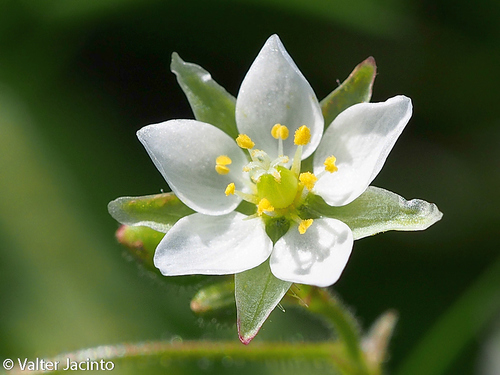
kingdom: Plantae
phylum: Tracheophyta
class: Magnoliopsida
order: Caryophyllales
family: Caryophyllaceae
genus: Spergula
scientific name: Spergula arvensis
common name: Corn spurrey
